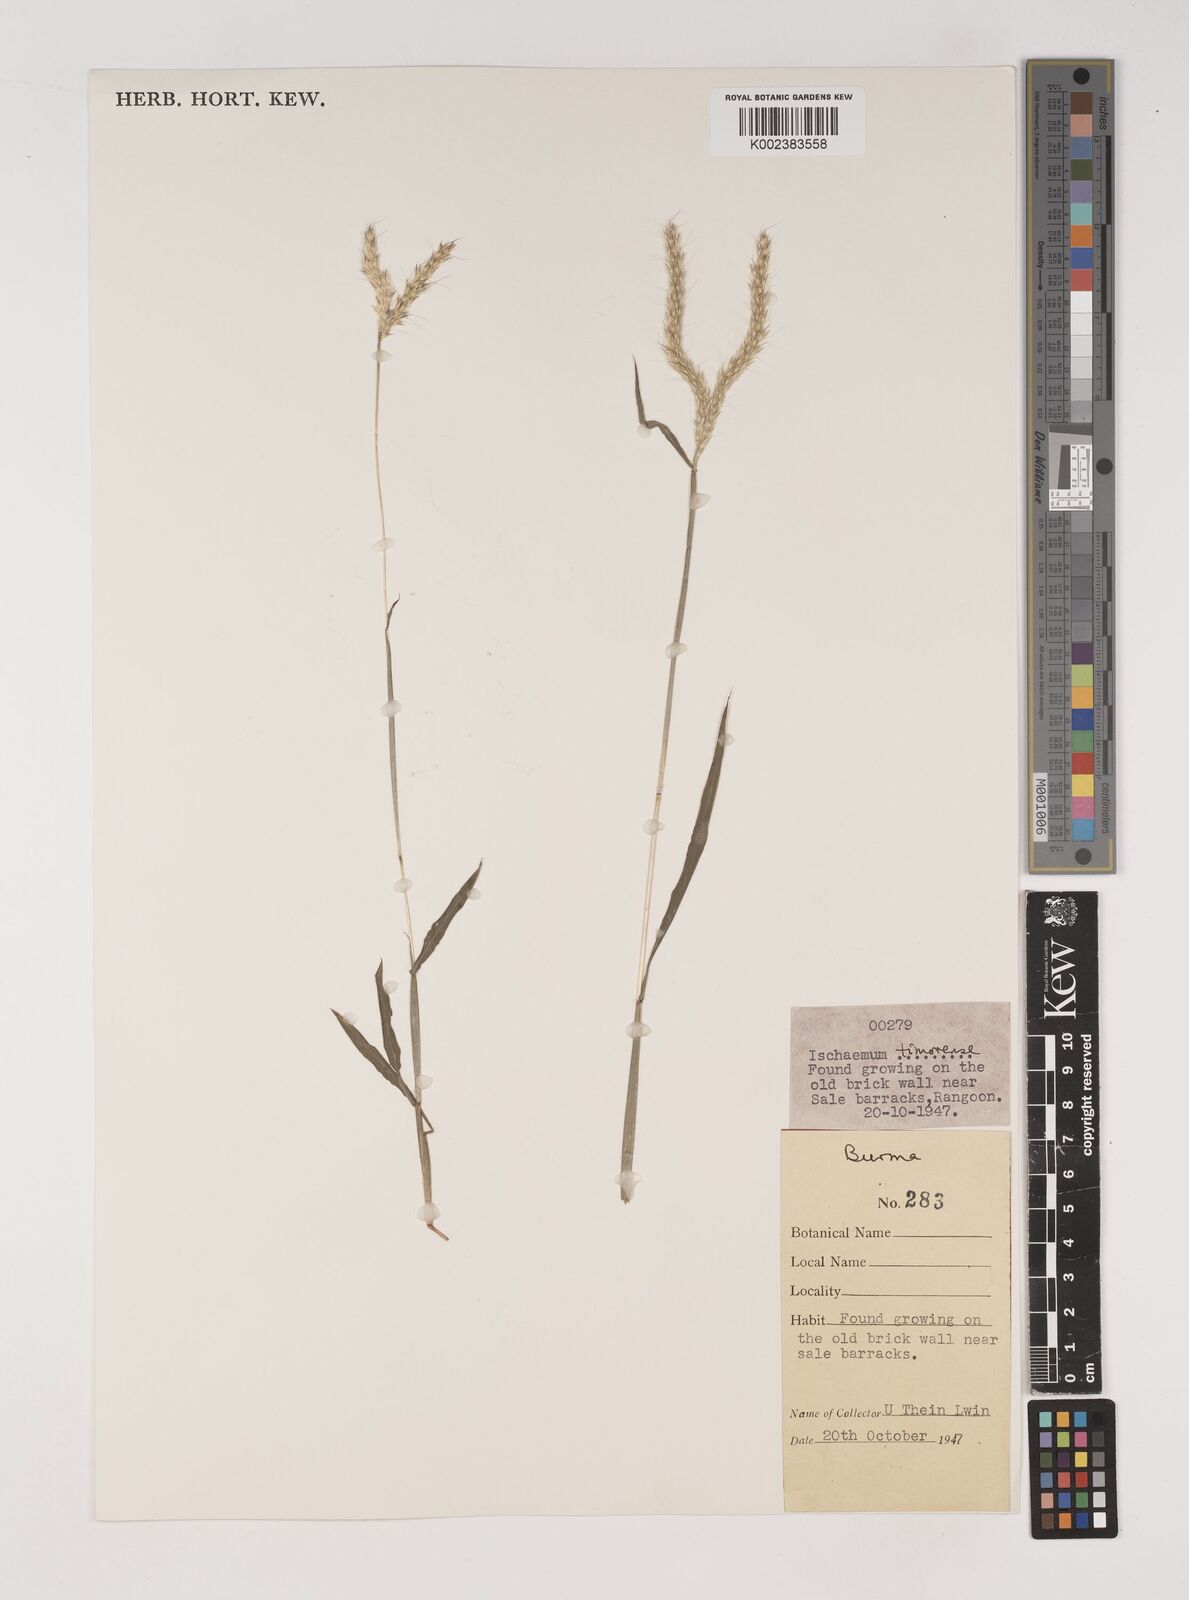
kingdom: Plantae
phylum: Tracheophyta
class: Liliopsida
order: Poales
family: Poaceae
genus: Ischaemum
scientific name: Ischaemum timorense
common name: Stalkleaf murainagrass
